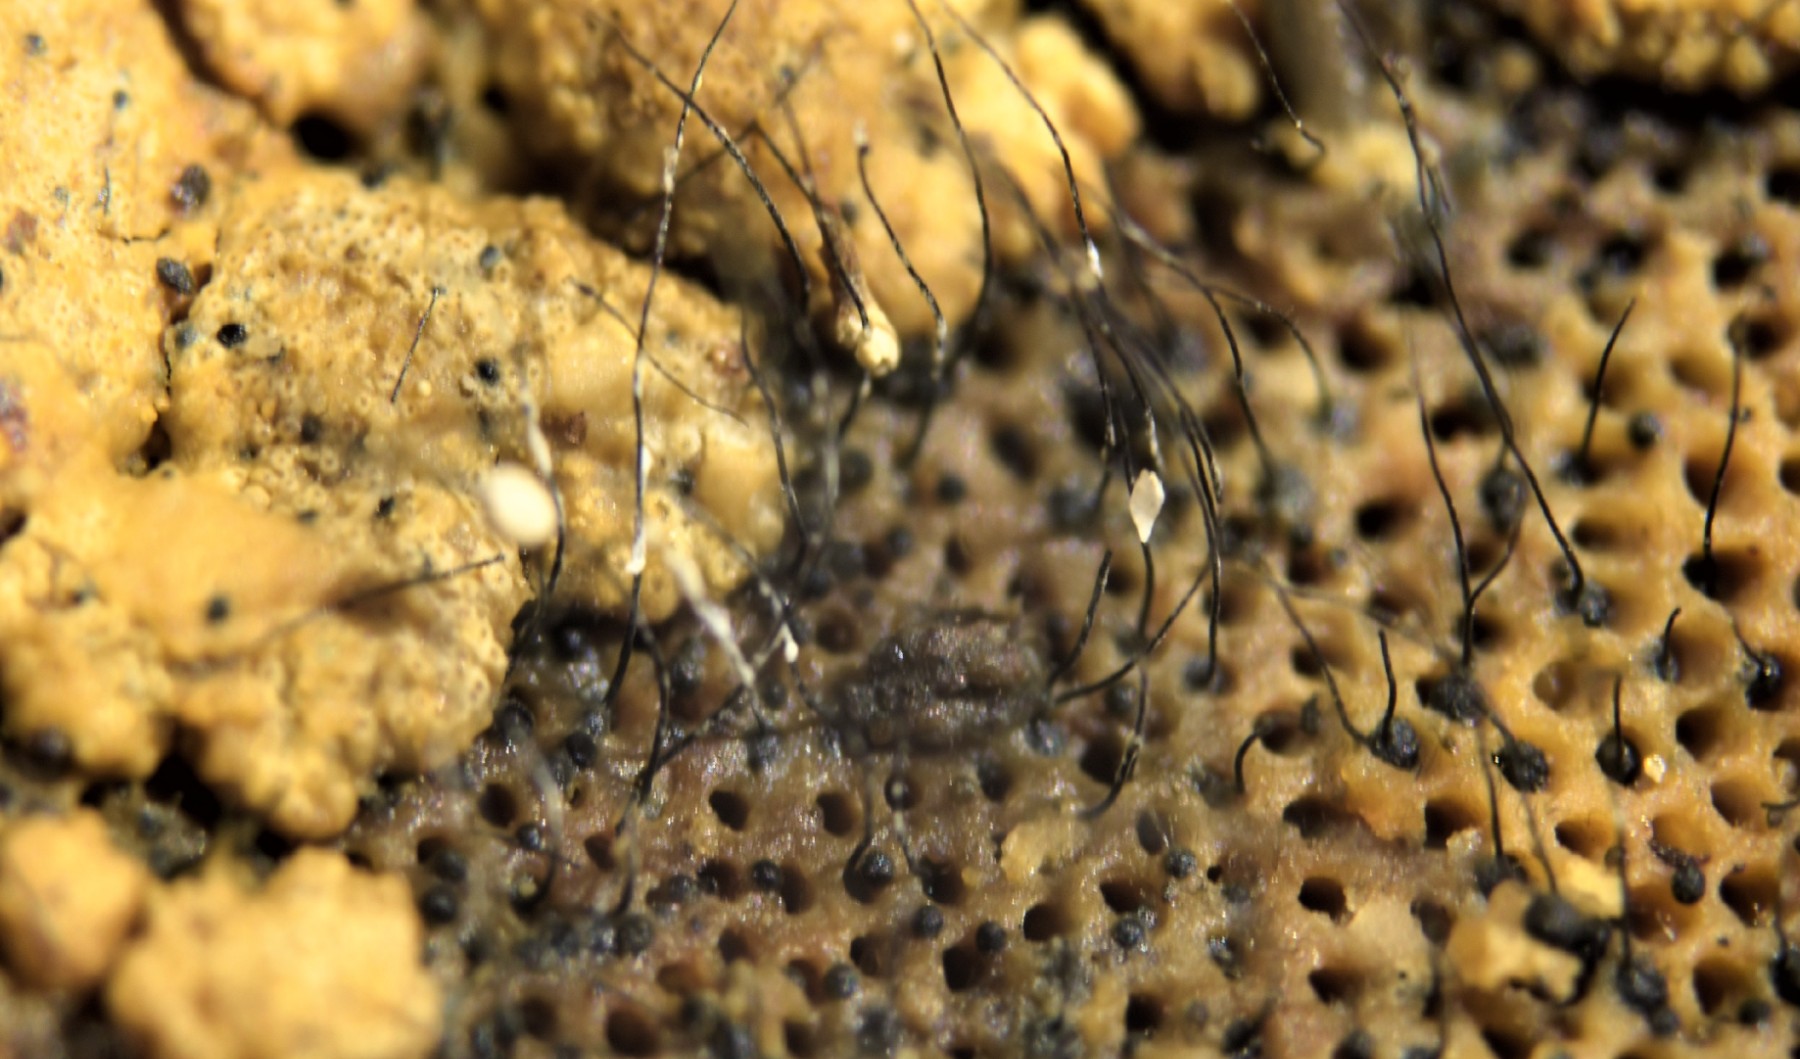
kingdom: Fungi
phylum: Ascomycota
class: Sordariomycetes
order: Ophiostomatales
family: Ophiostomataceae
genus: Sporothrix
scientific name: Sporothrix polyporicola
